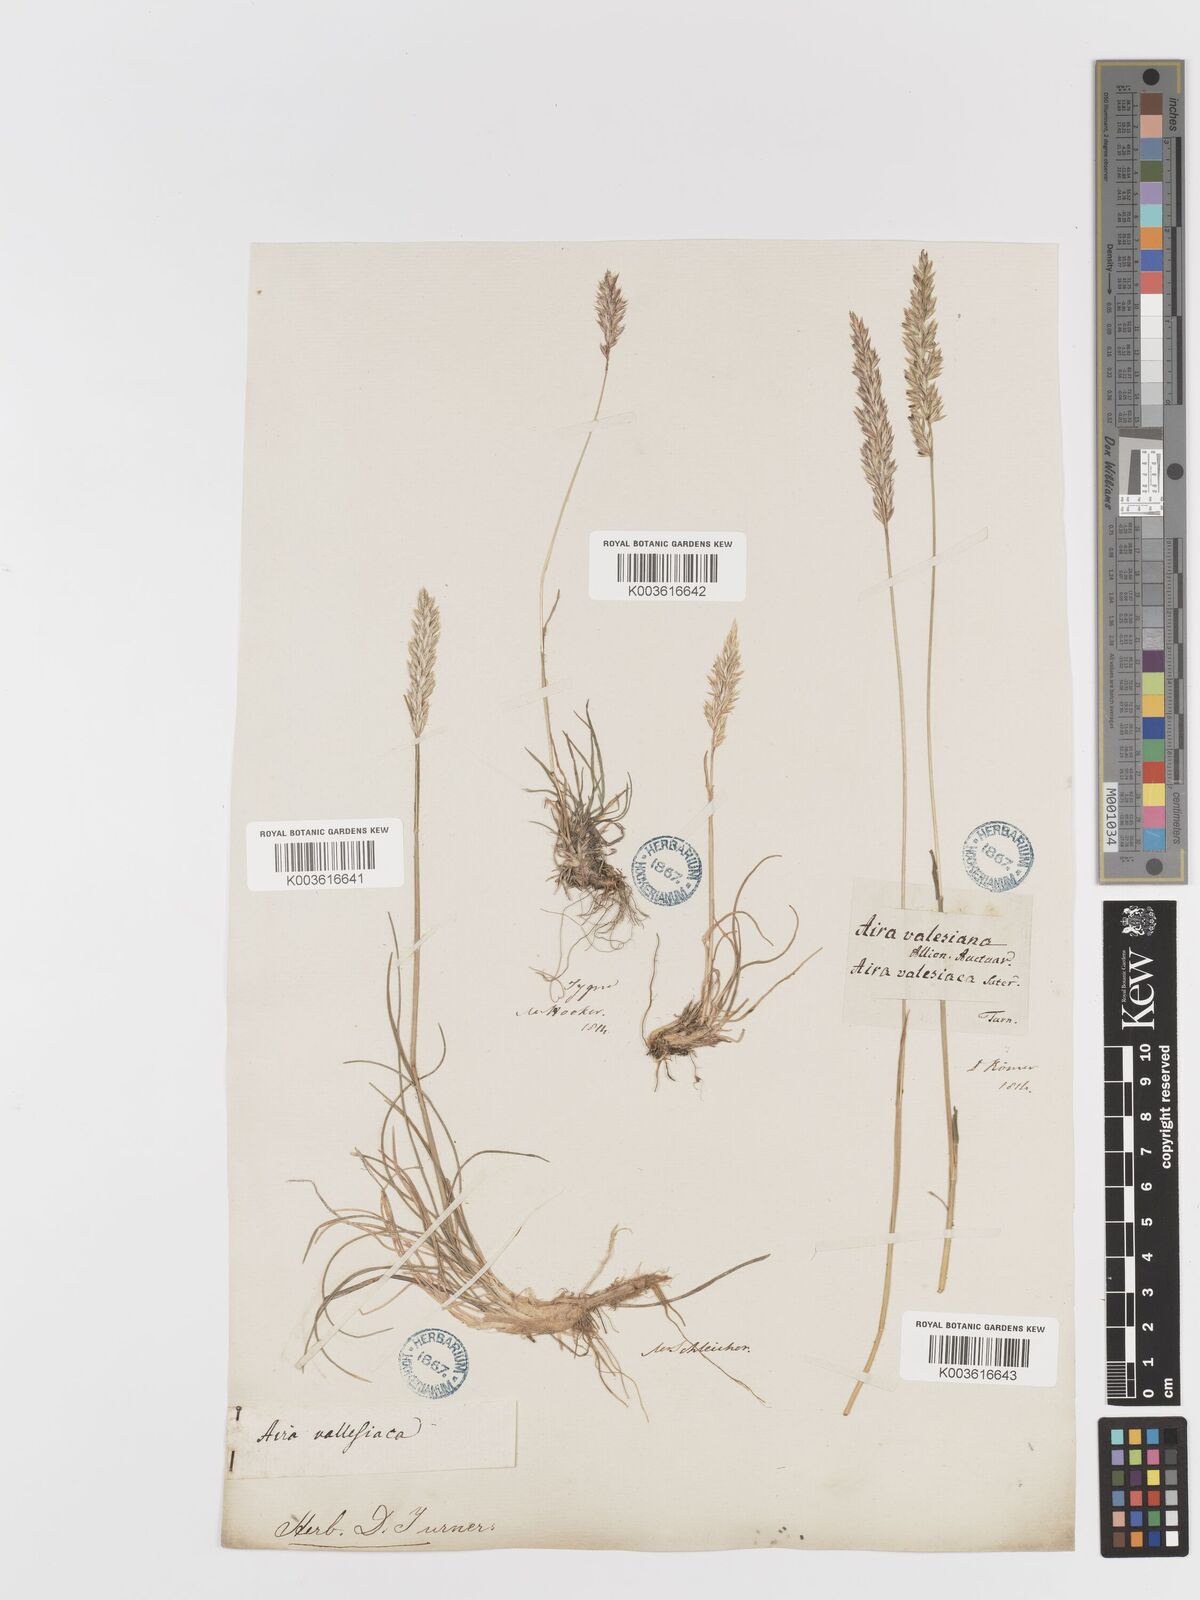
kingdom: Plantae
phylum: Tracheophyta
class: Liliopsida
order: Poales
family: Poaceae
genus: Koeleria
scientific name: Koeleria vallesiana
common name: Somerset hair-grass
